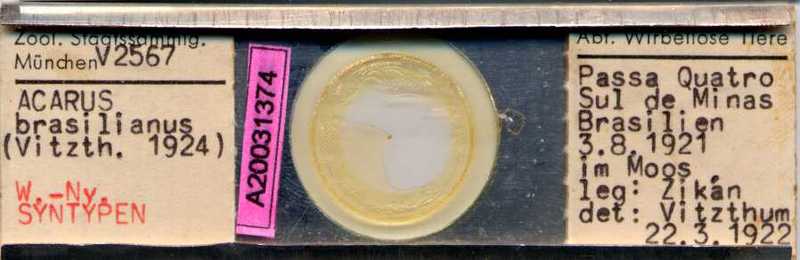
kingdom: Animalia
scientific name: Animalia
